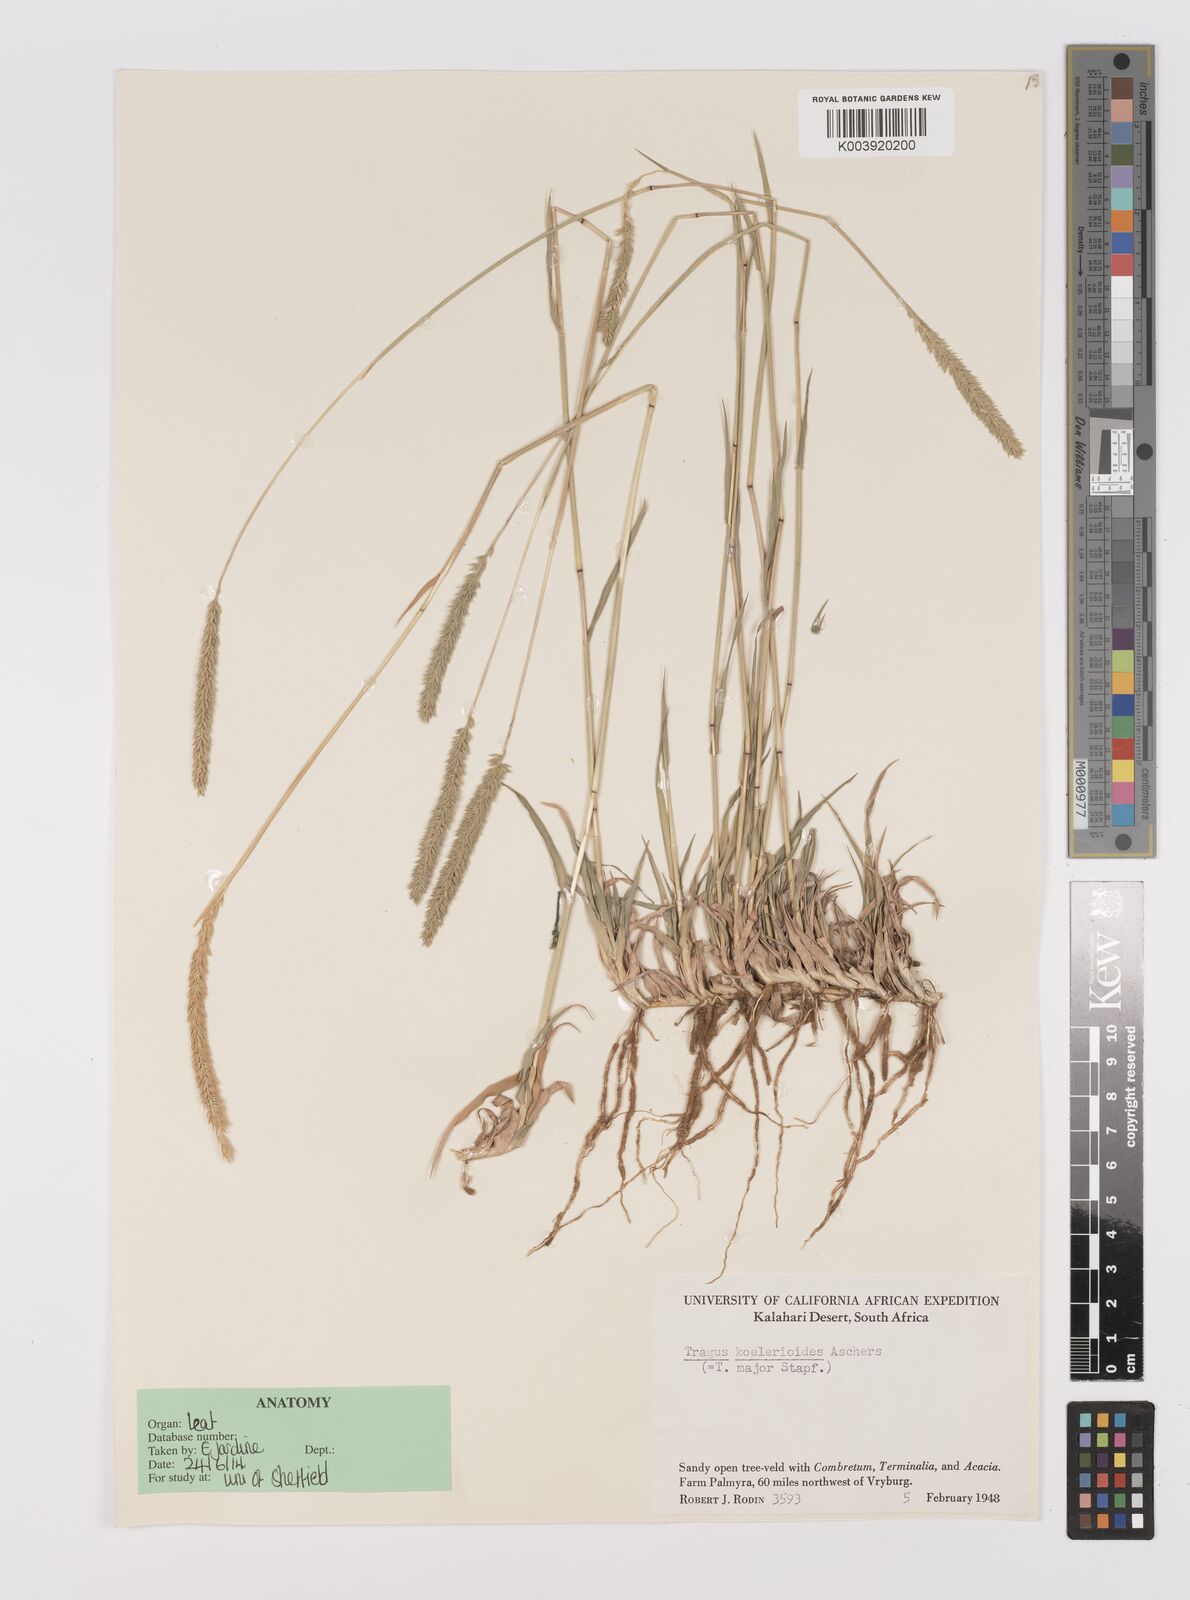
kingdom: Plantae
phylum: Tracheophyta
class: Liliopsida
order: Poales
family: Poaceae
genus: Tragus
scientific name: Tragus koelerioides
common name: Creeping carrot-seed grass
